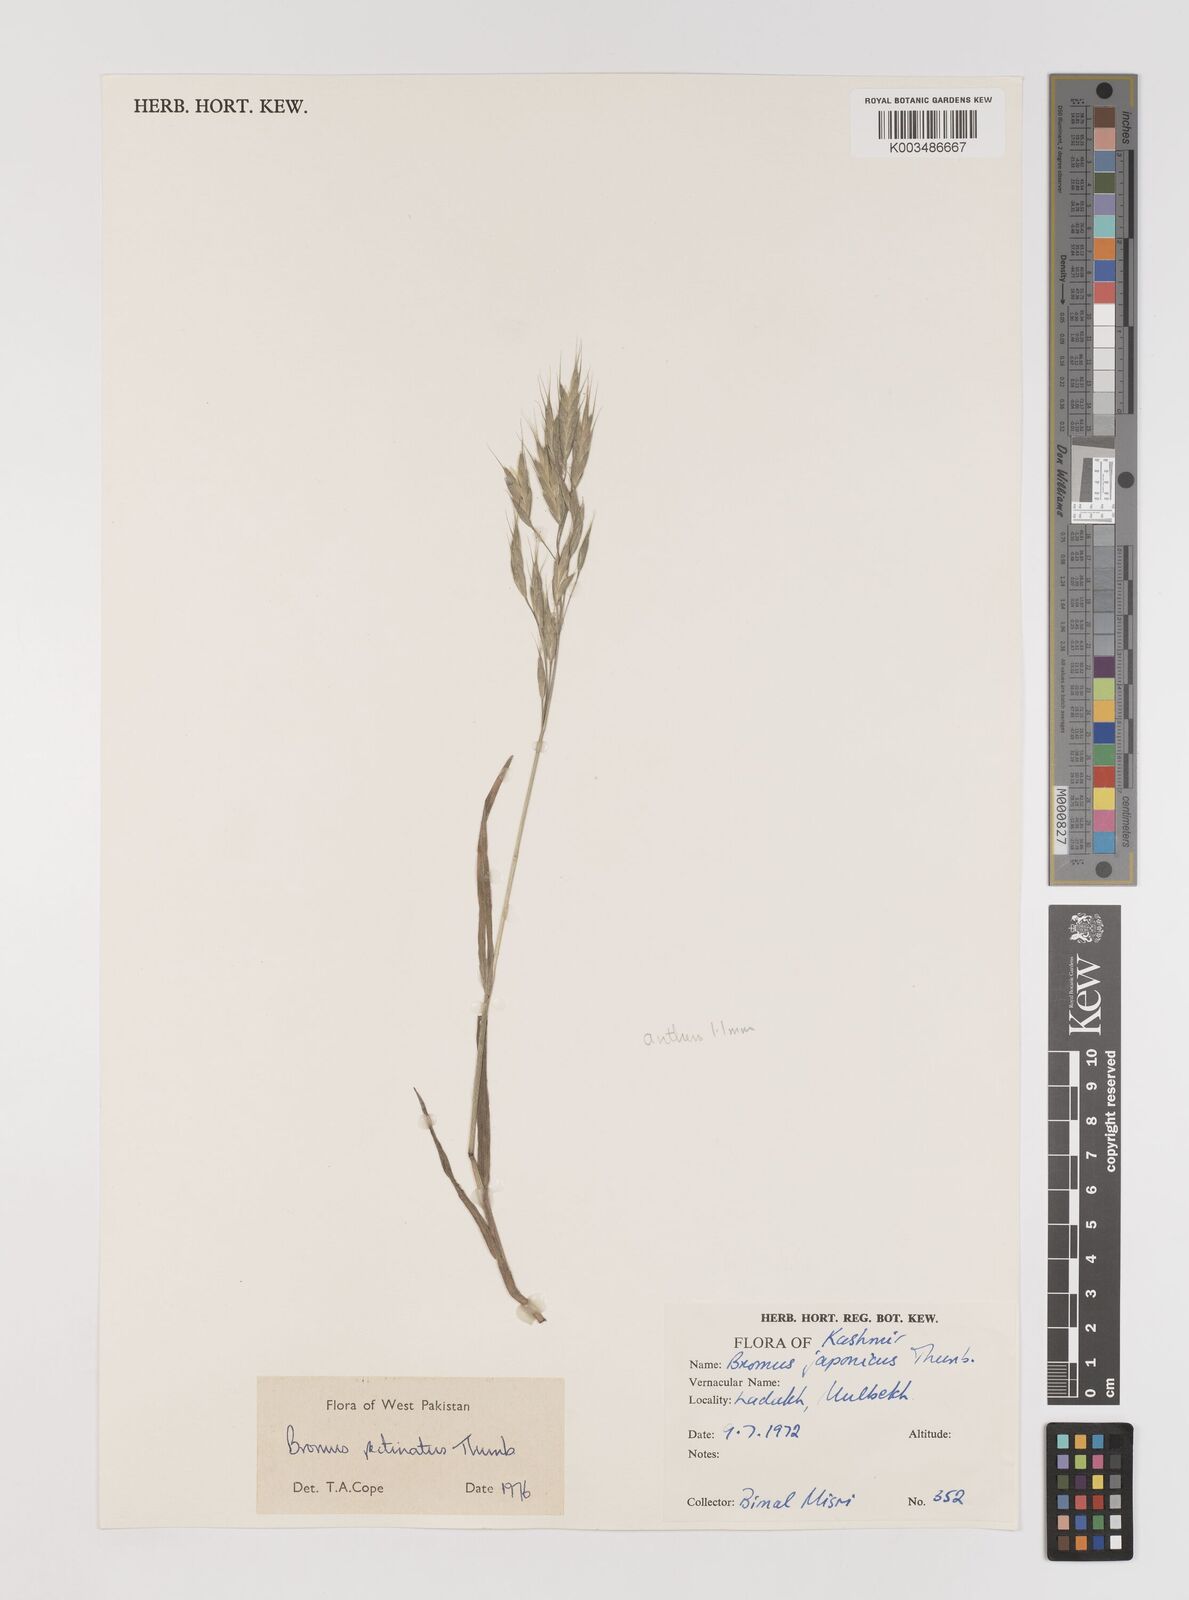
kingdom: Plantae
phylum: Tracheophyta
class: Liliopsida
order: Poales
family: Poaceae
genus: Bromus
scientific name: Bromus pectinatus
